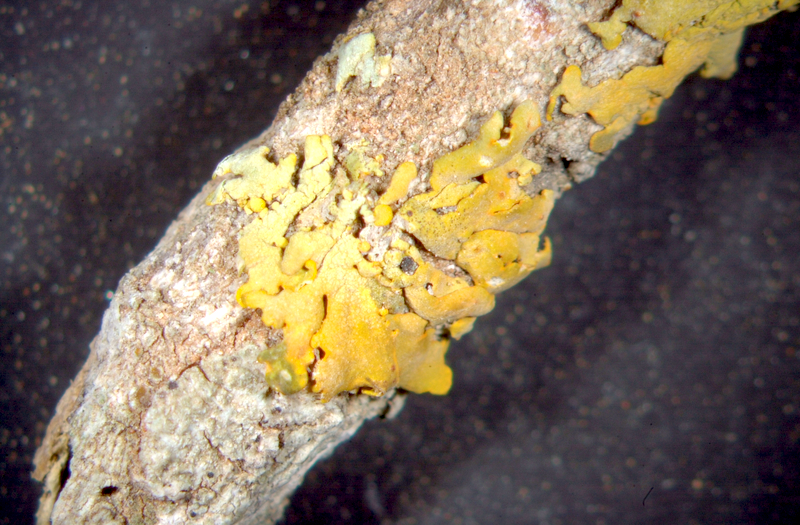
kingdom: Fungi
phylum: Ascomycota
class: Lecanoromycetes
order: Teloschistales
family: Teloschistaceae
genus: Dufourea
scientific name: Dufourea dissectula
